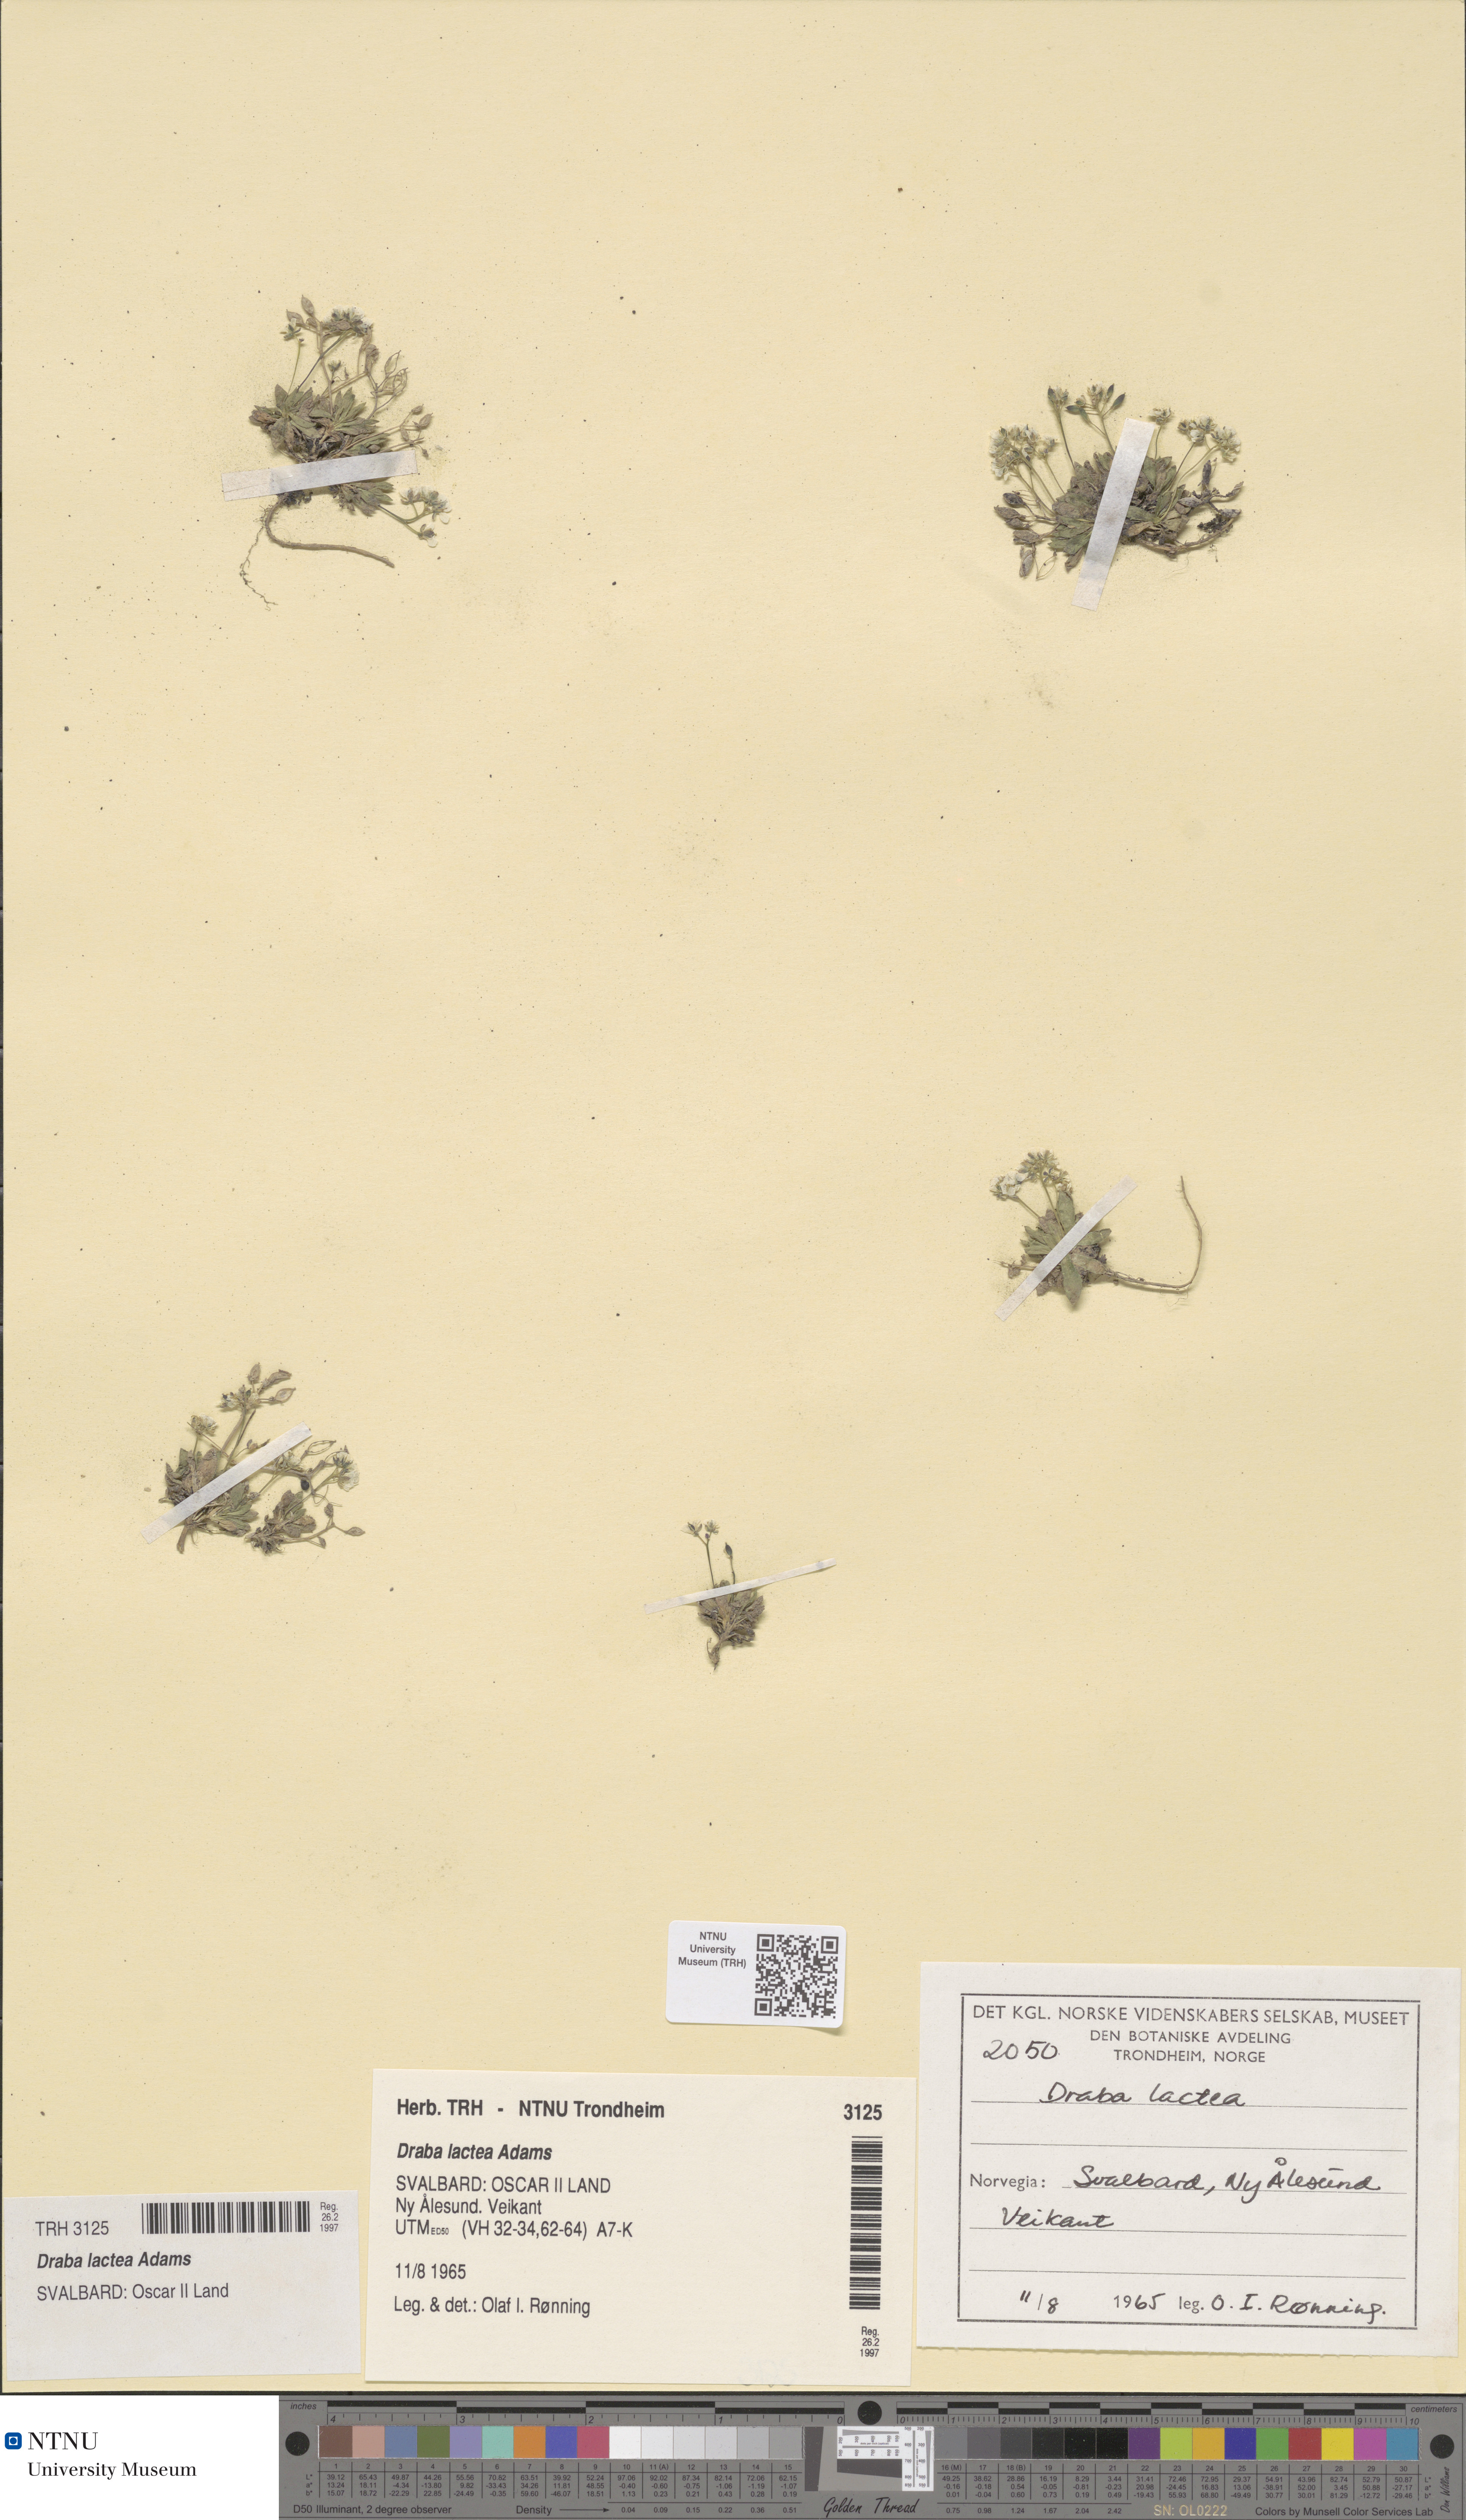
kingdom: Plantae
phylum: Tracheophyta
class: Magnoliopsida
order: Brassicales
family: Brassicaceae
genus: Draba
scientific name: Draba lactea
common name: Milky draba
